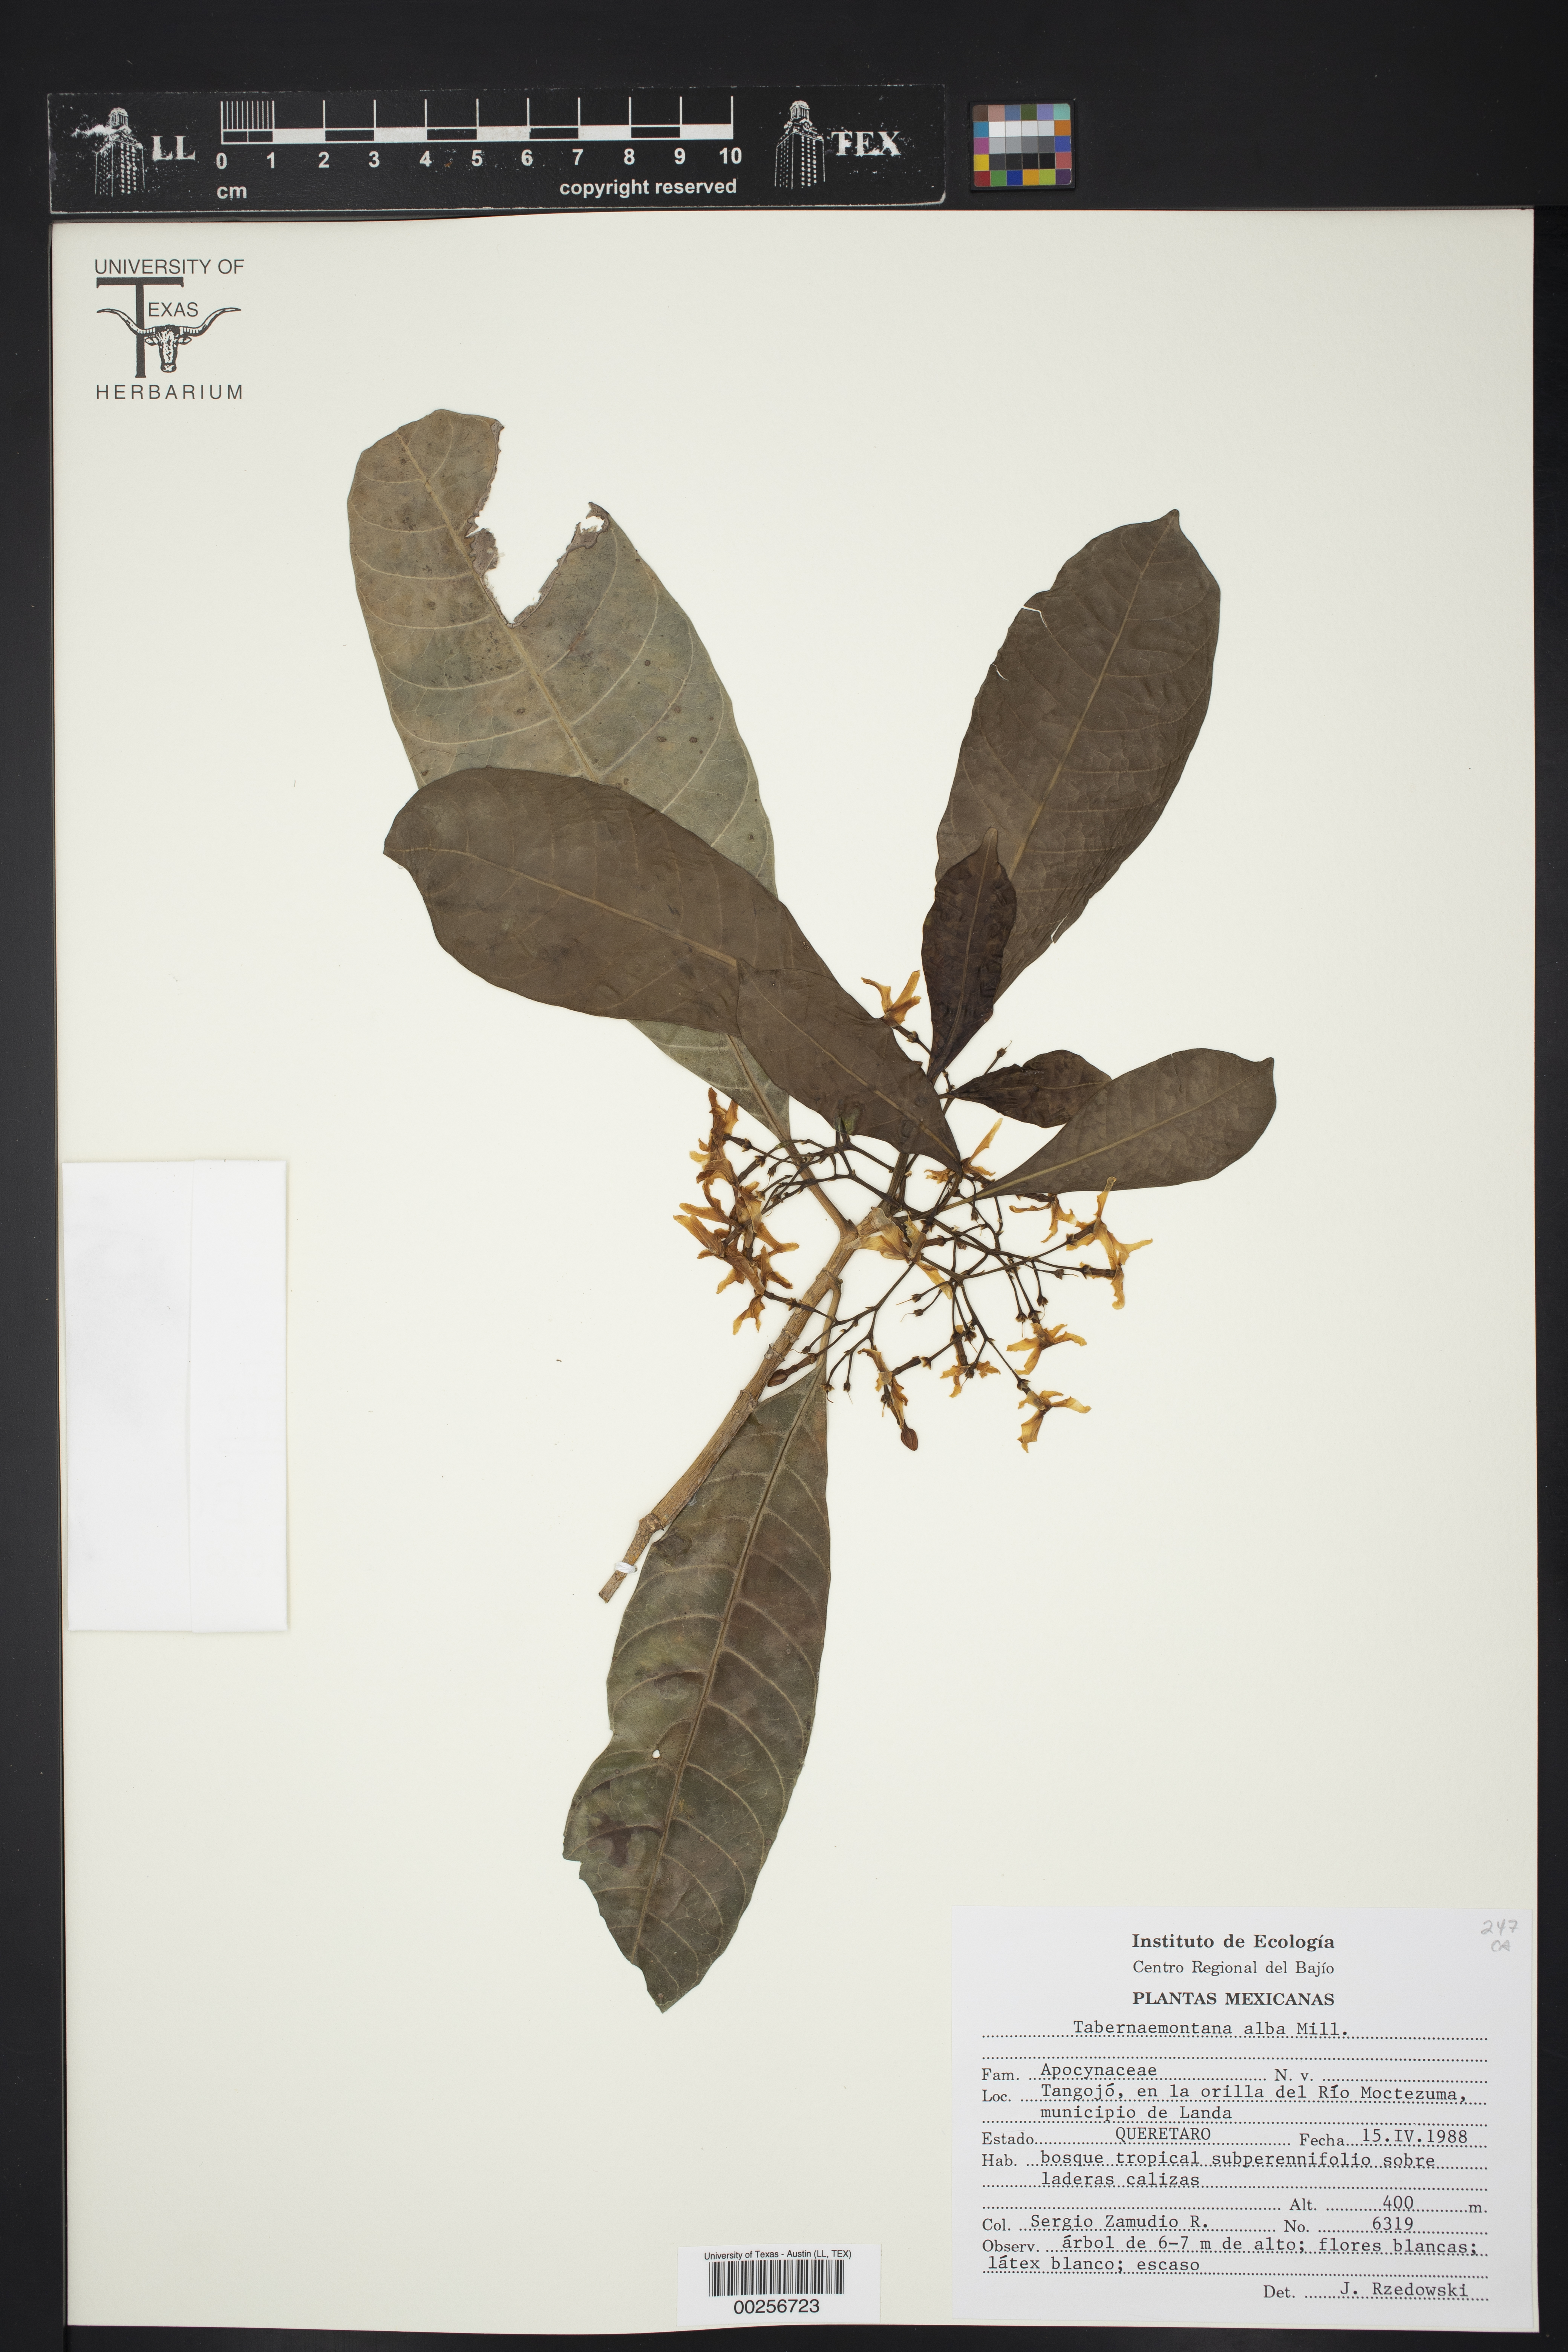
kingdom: Plantae
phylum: Tracheophyta
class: Magnoliopsida
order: Gentianales
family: Apocynaceae
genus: Tabernaemontana
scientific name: Tabernaemontana alba
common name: White milkwood
